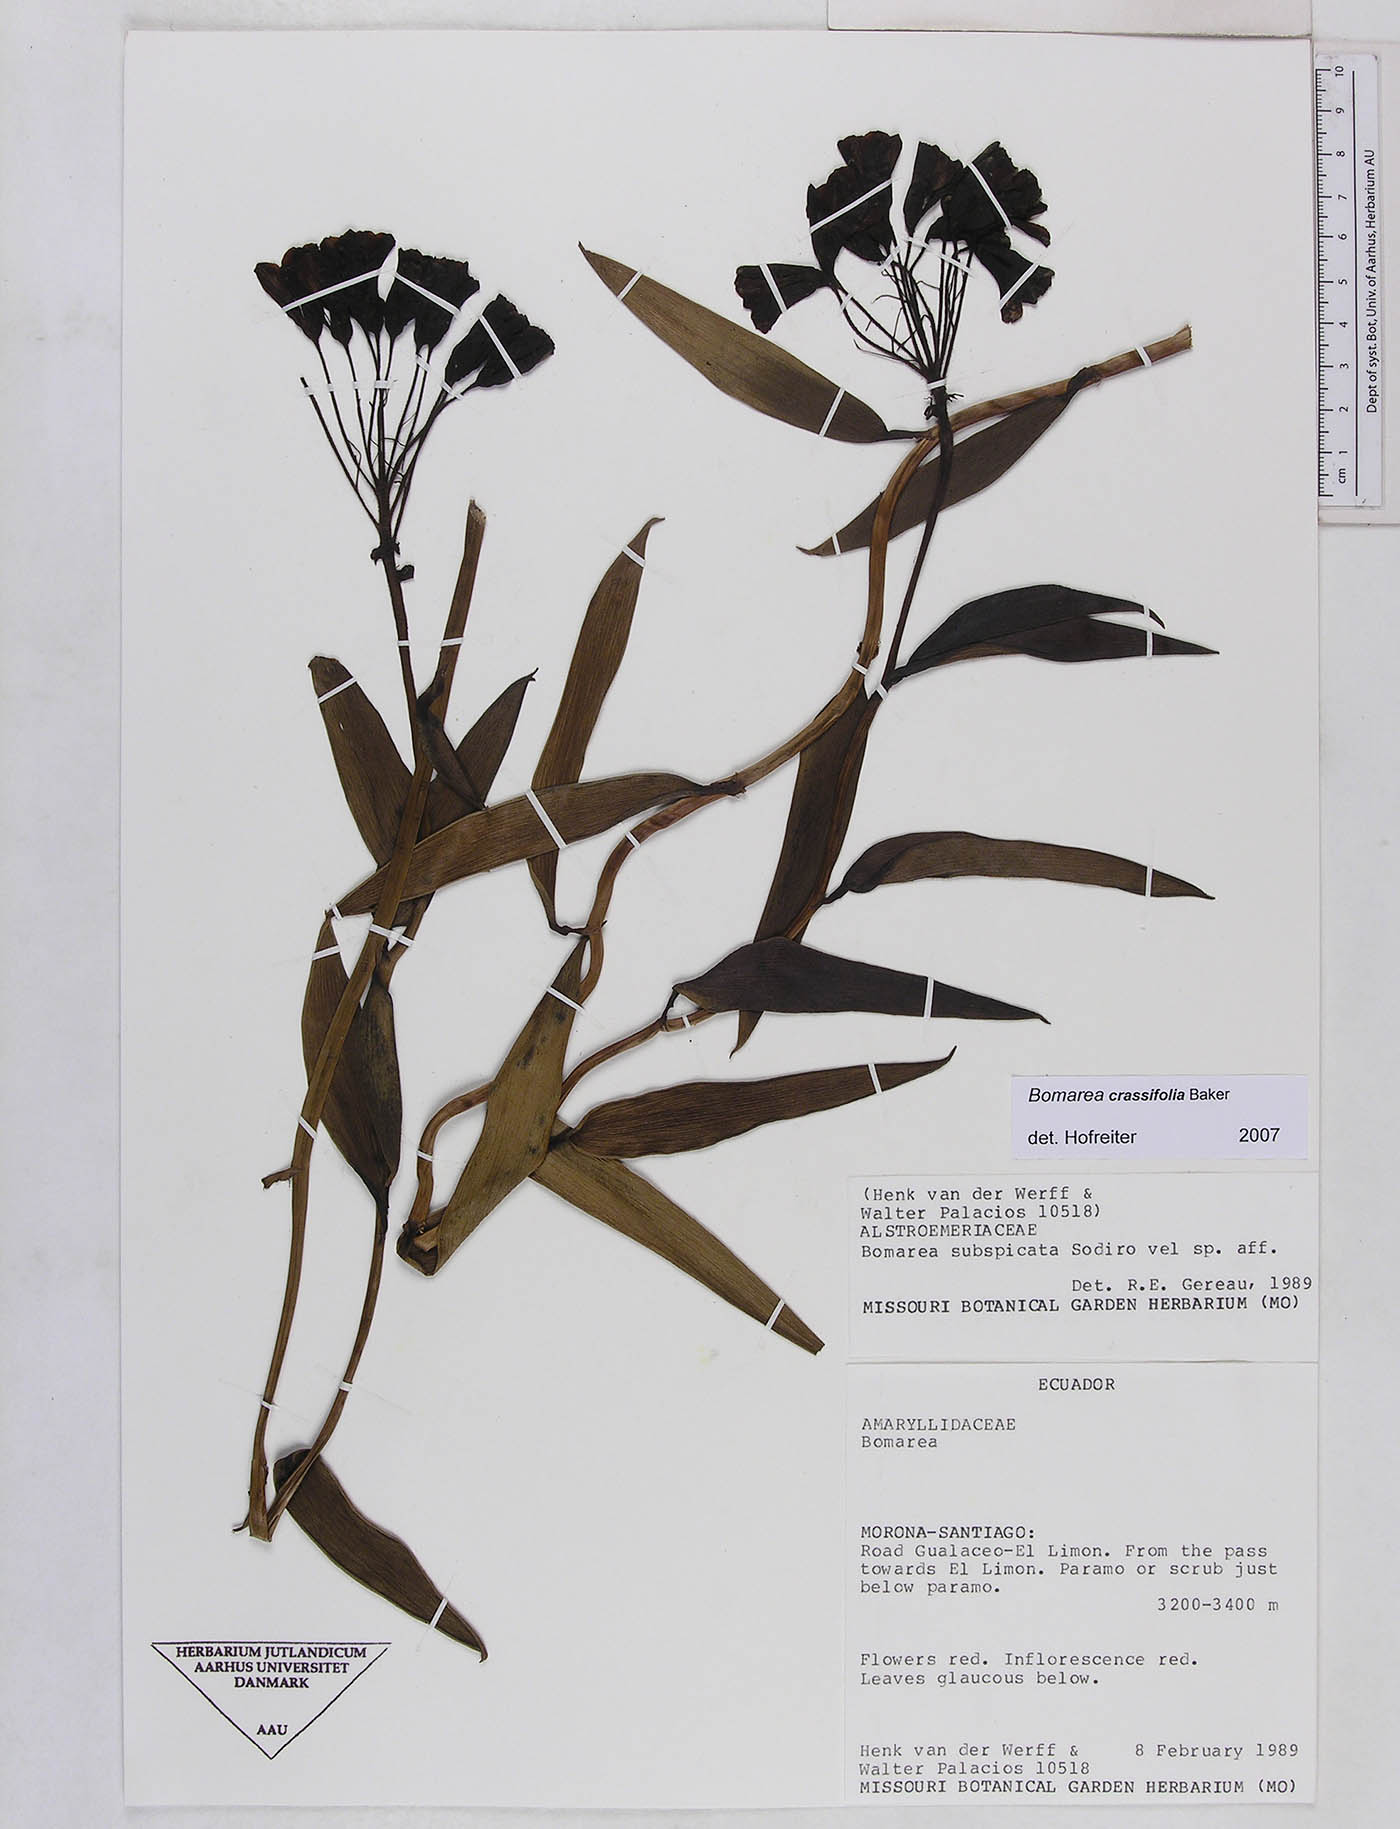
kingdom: Plantae
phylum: Tracheophyta
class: Liliopsida
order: Liliales
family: Alstroemeriaceae
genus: Bomarea
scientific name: Bomarea crassifolia
